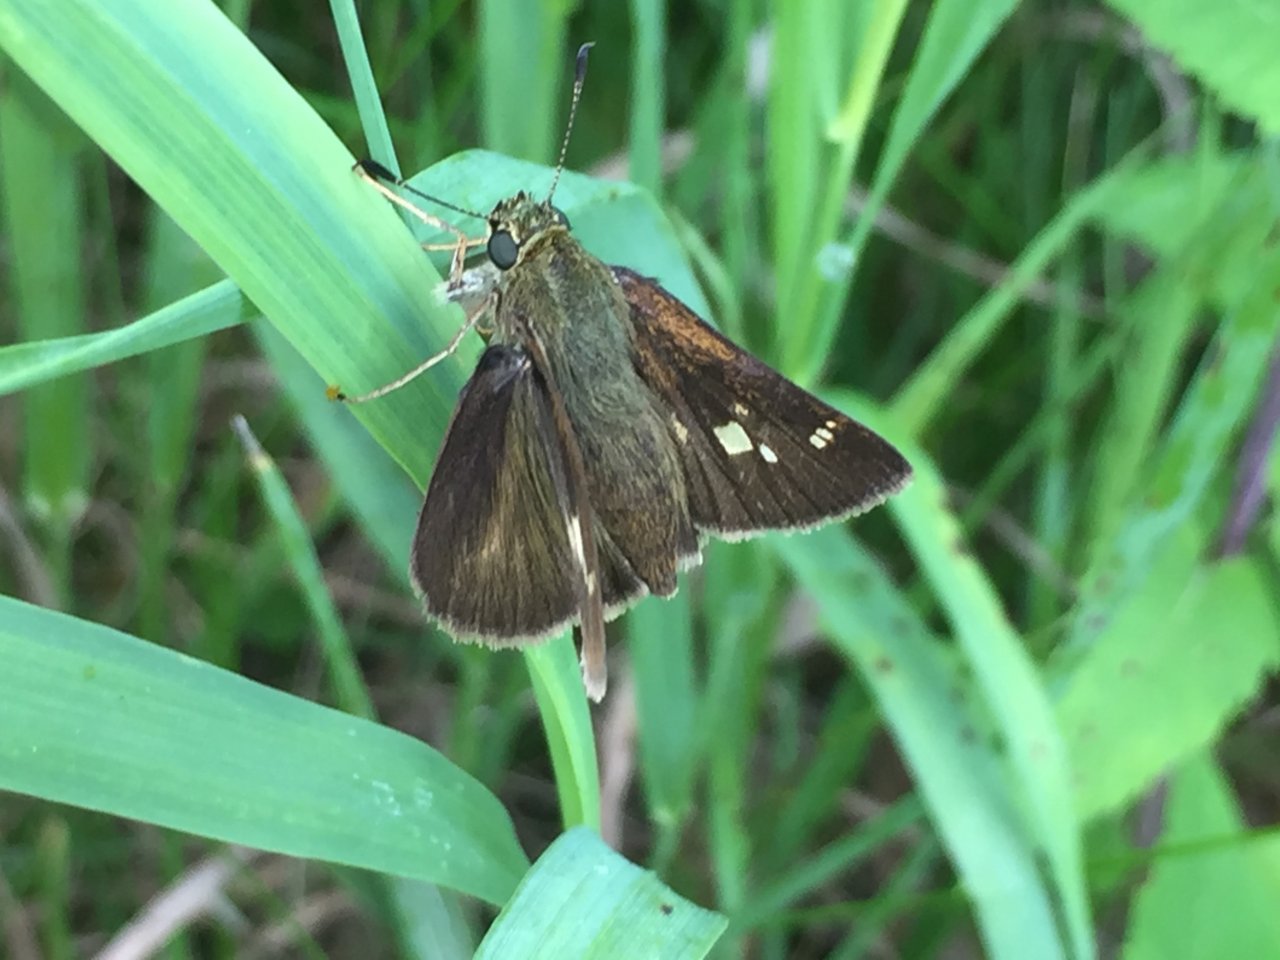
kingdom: Animalia
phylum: Arthropoda
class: Insecta
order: Lepidoptera
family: Hesperiidae
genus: Vernia
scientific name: Vernia verna
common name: Little Glassywing
